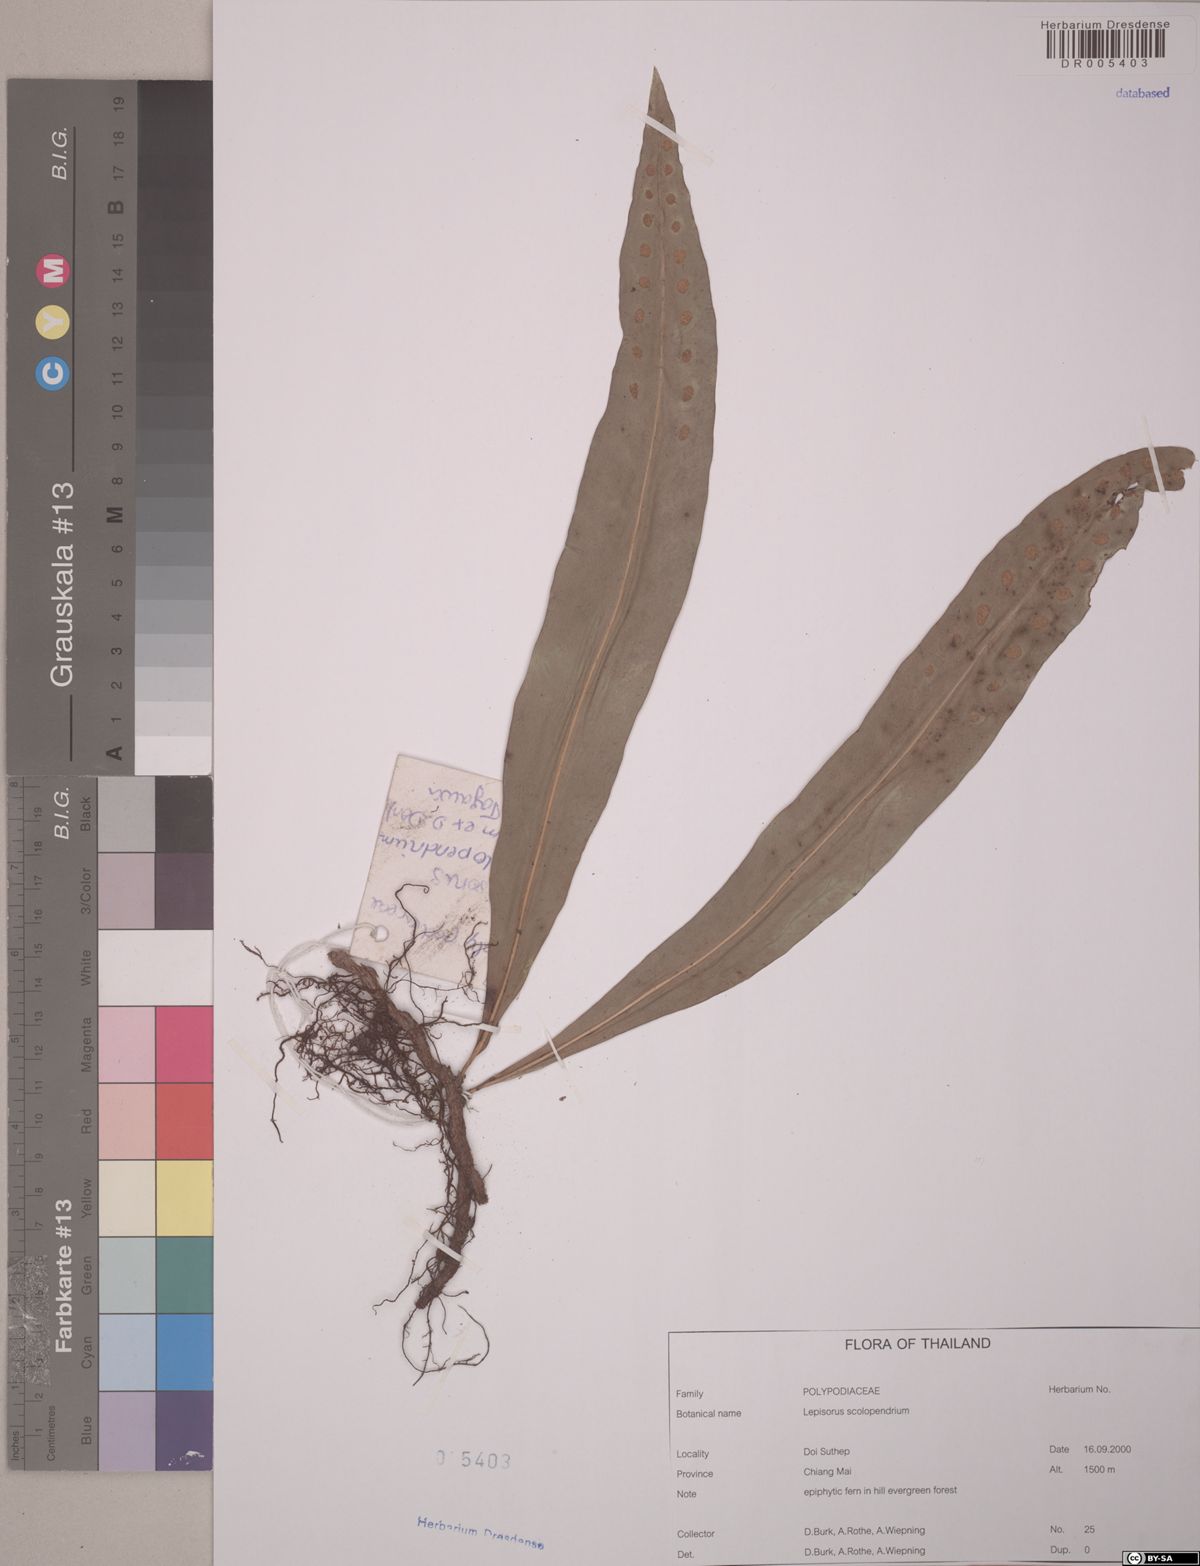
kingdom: Plantae
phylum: Tracheophyta
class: Polypodiopsida
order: Polypodiales
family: Polypodiaceae
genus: Lepisorus
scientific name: Lepisorus scolopendrium
